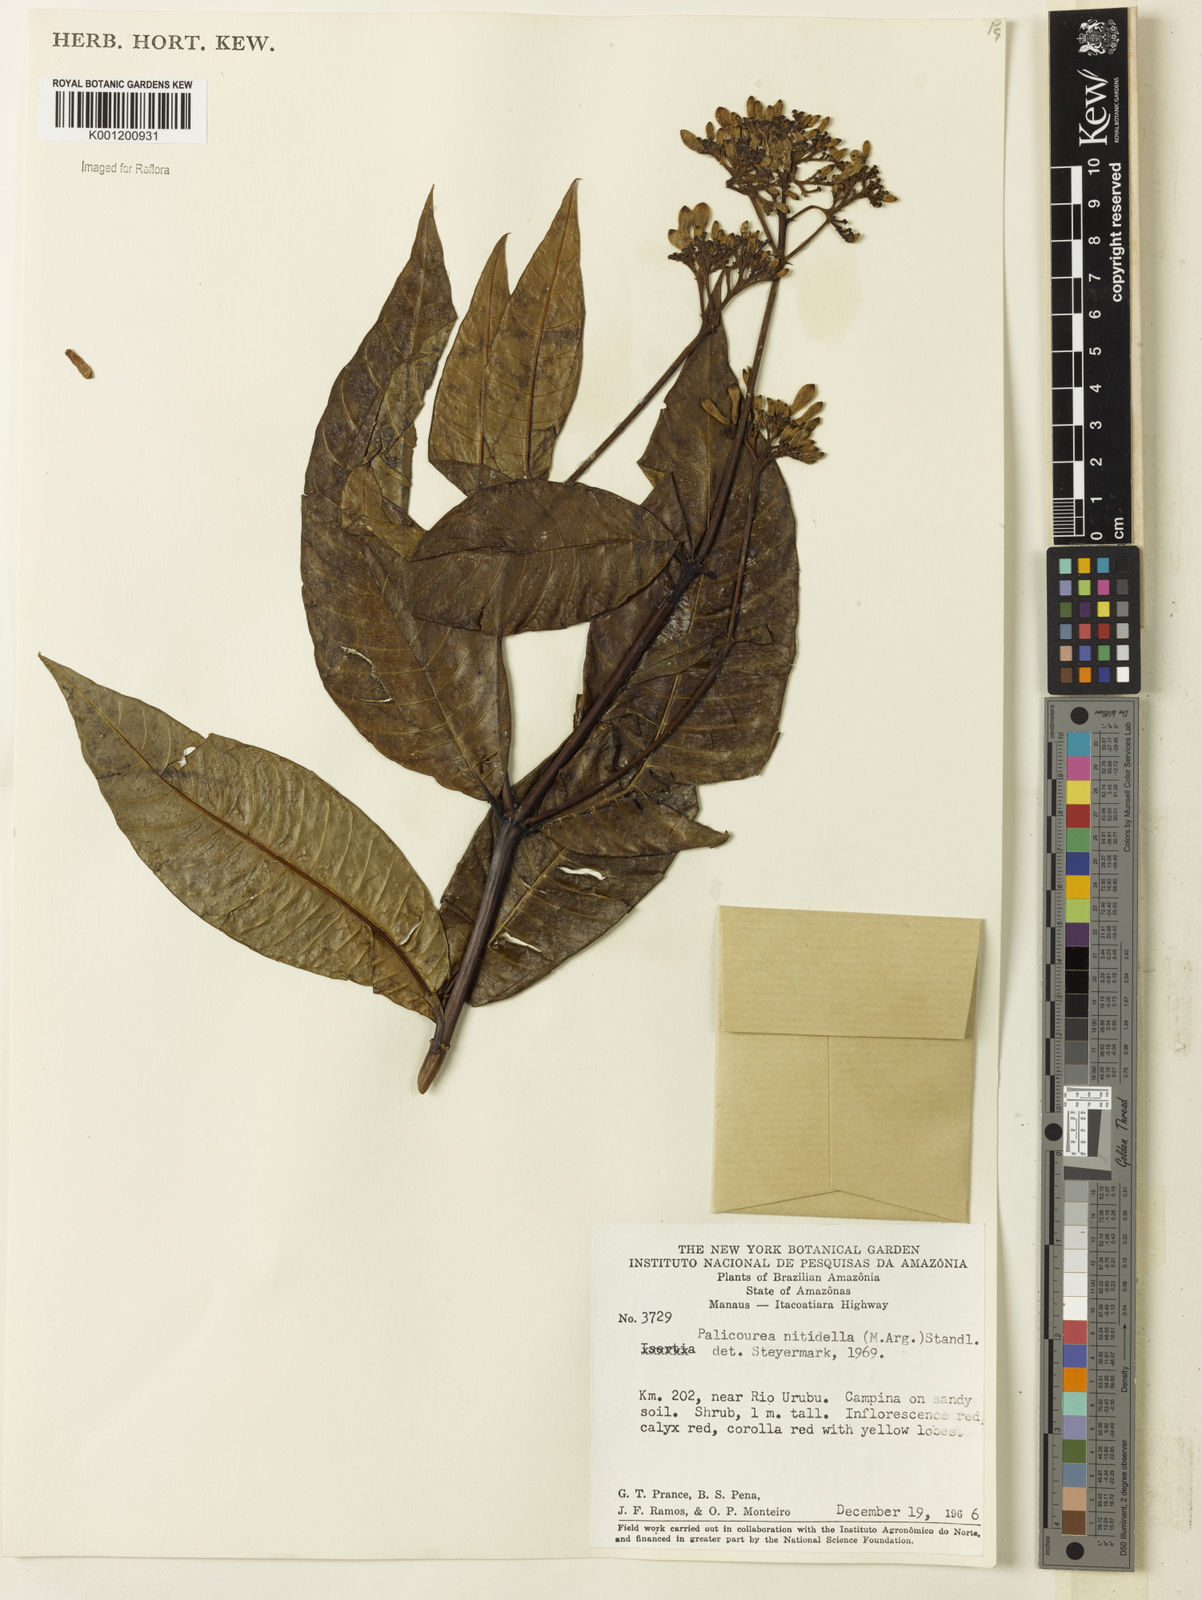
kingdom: Plantae
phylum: Tracheophyta
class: Magnoliopsida
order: Gentianales
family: Rubiaceae
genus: Palicourea
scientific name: Palicourea
